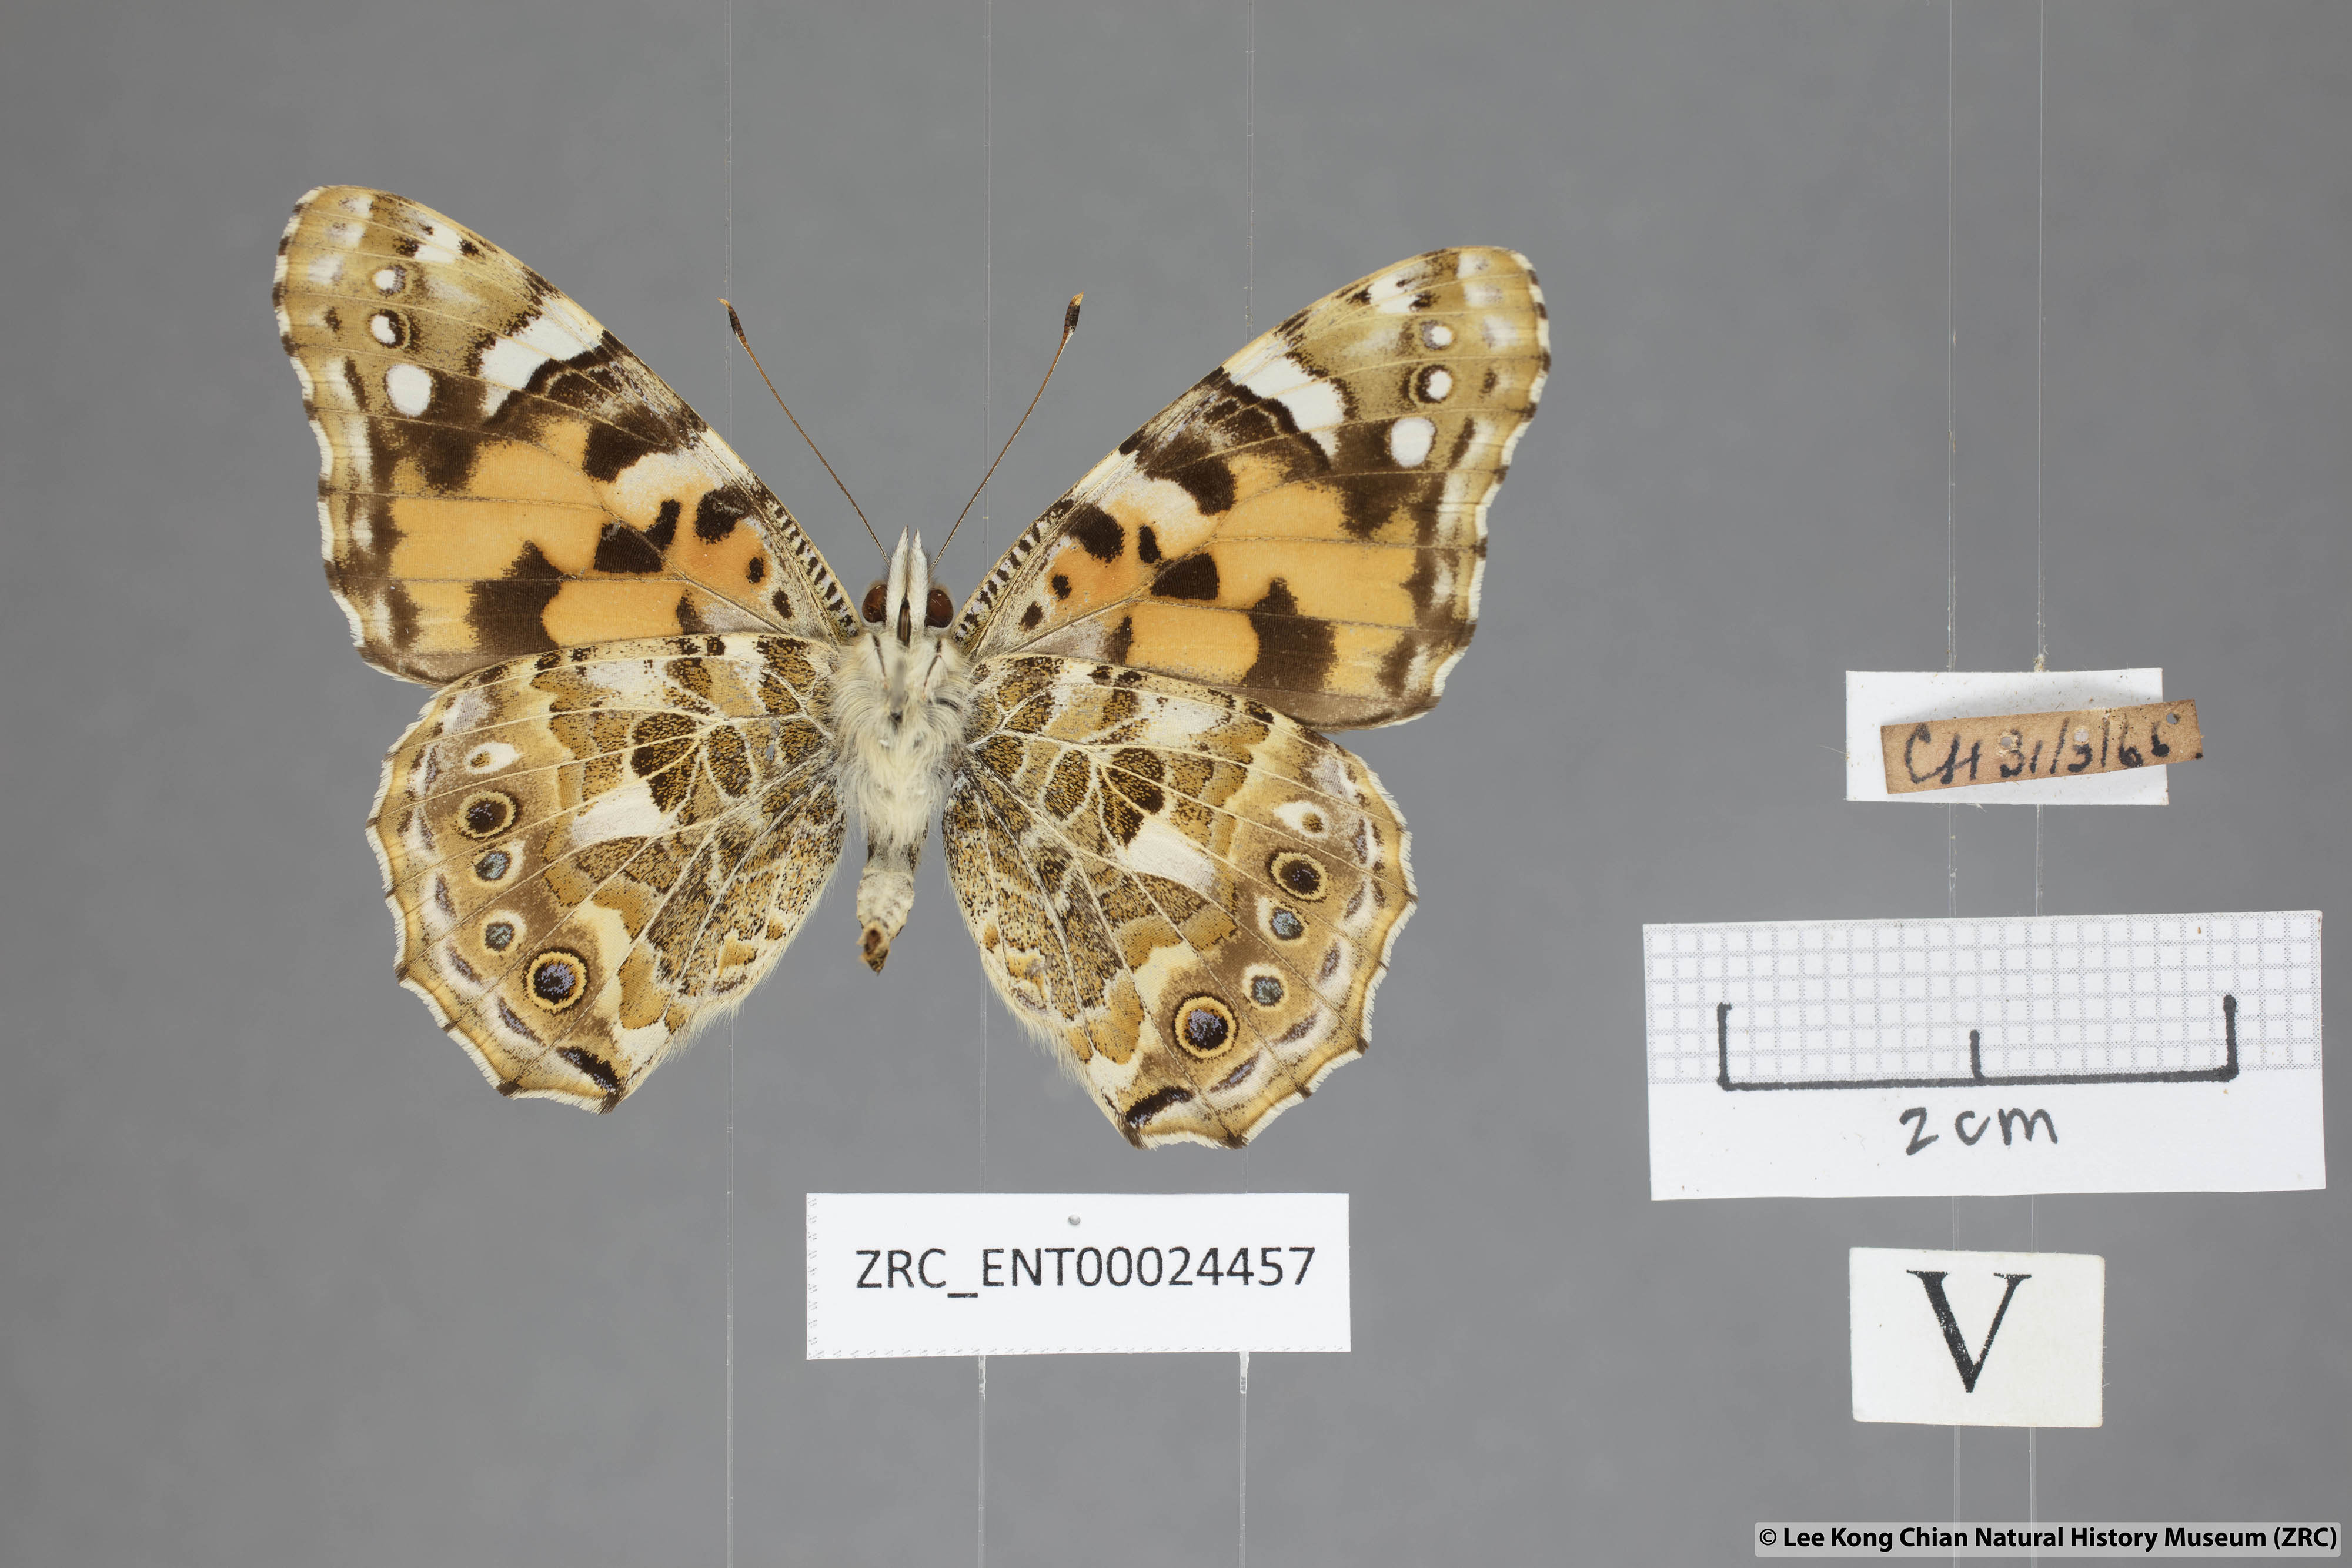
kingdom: Animalia
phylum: Arthropoda
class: Insecta
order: Lepidoptera
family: Nymphalidae
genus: Vanessa
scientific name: Vanessa cardui
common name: Painted lady
